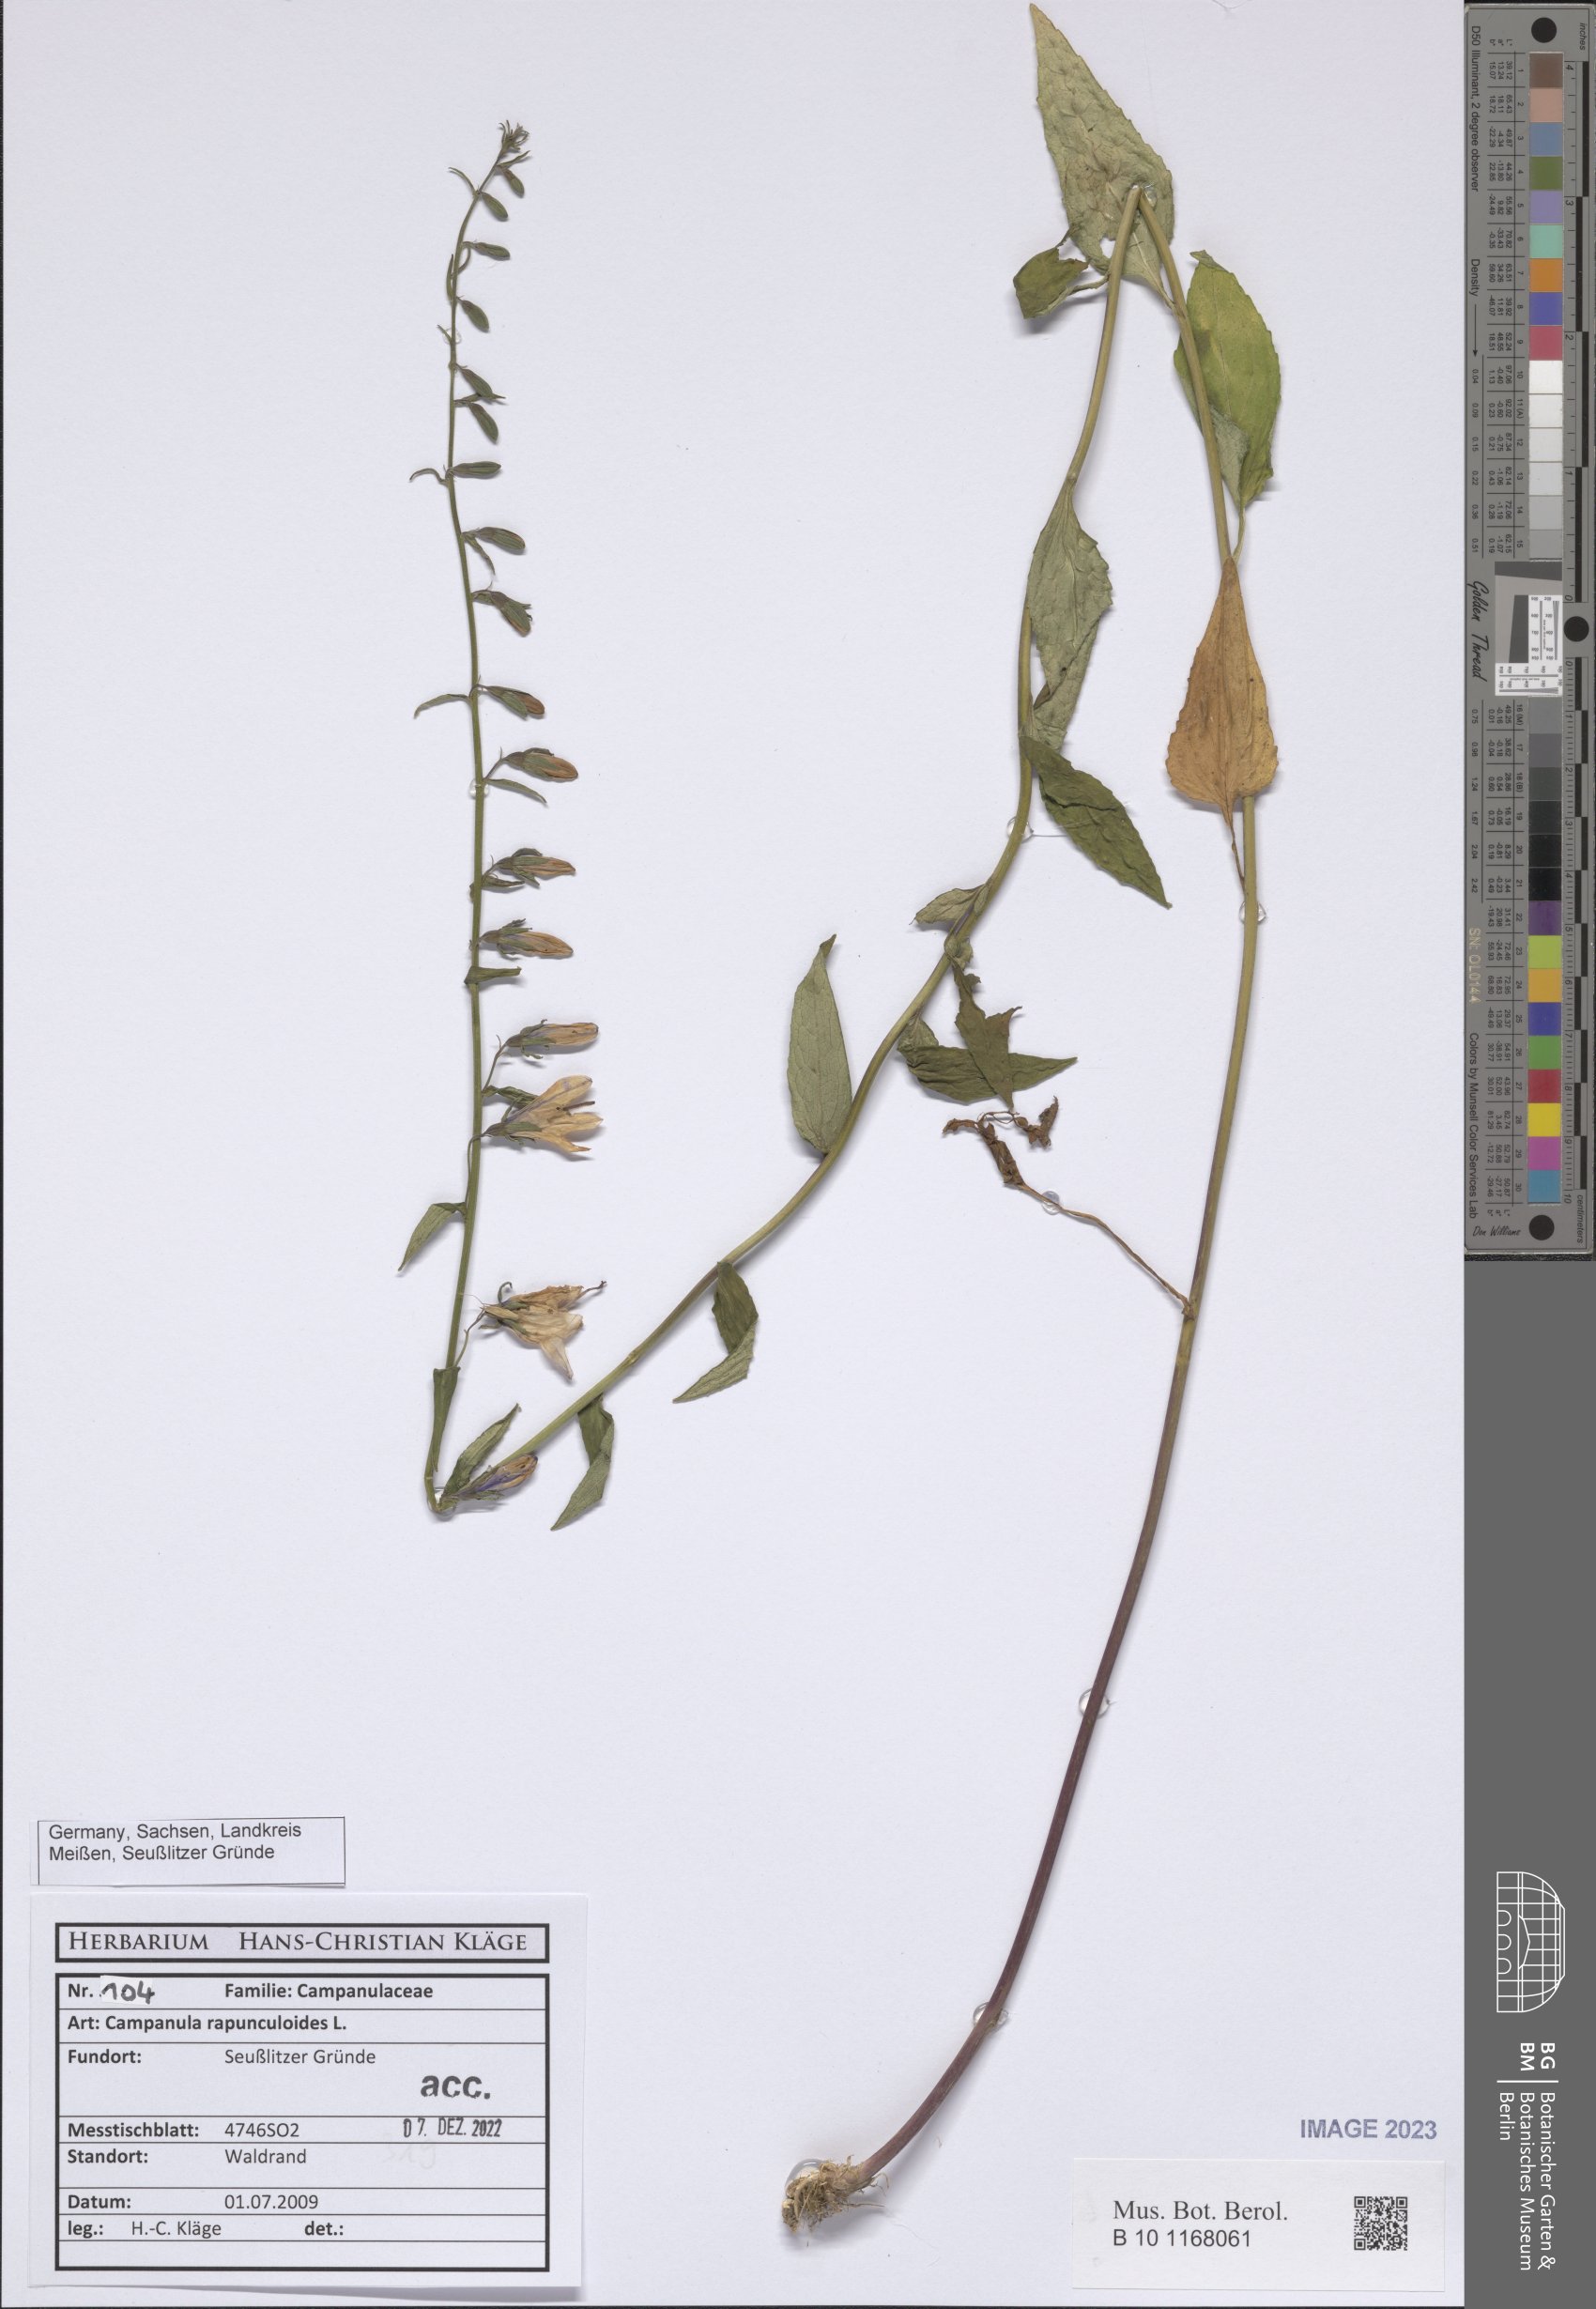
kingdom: Plantae
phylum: Tracheophyta
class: Magnoliopsida
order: Asterales
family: Campanulaceae
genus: Campanula
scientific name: Campanula rapunculoides
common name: Creeping bellflower
